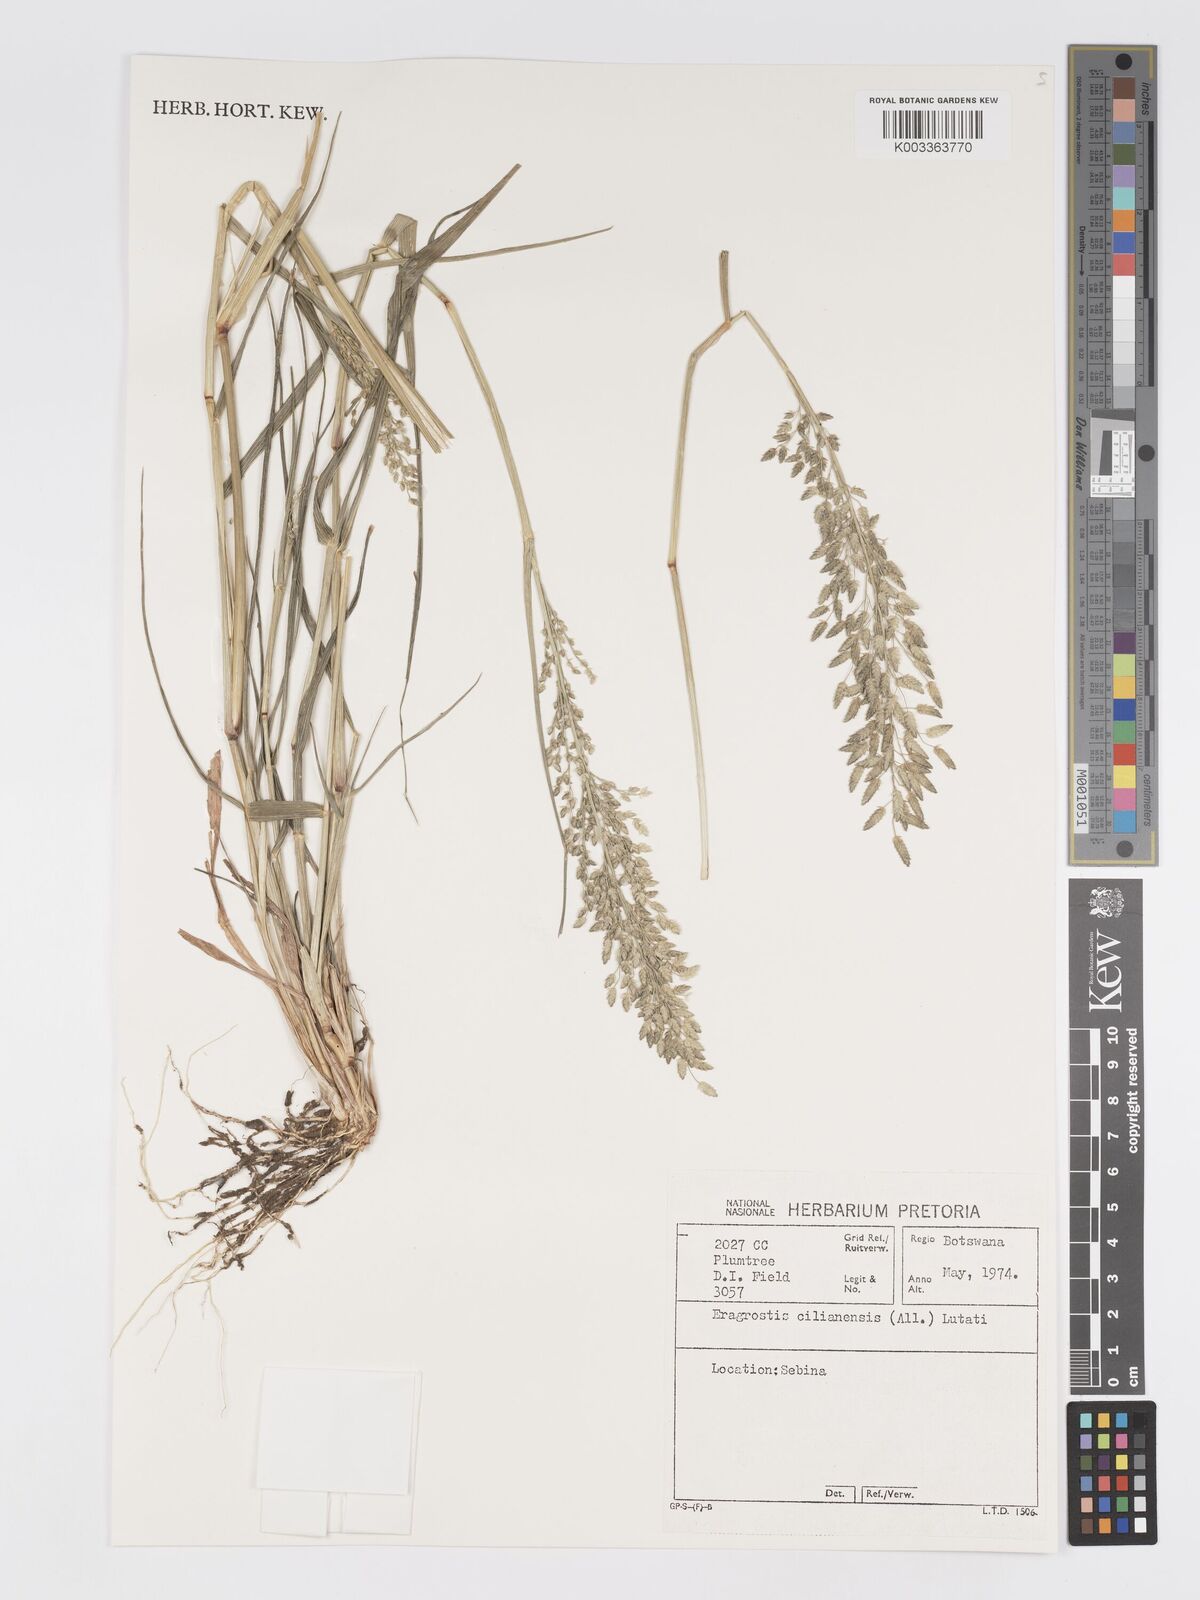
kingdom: Plantae
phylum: Tracheophyta
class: Liliopsida
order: Poales
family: Poaceae
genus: Eragrostis
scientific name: Eragrostis cilianensis
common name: Stinkgrass
